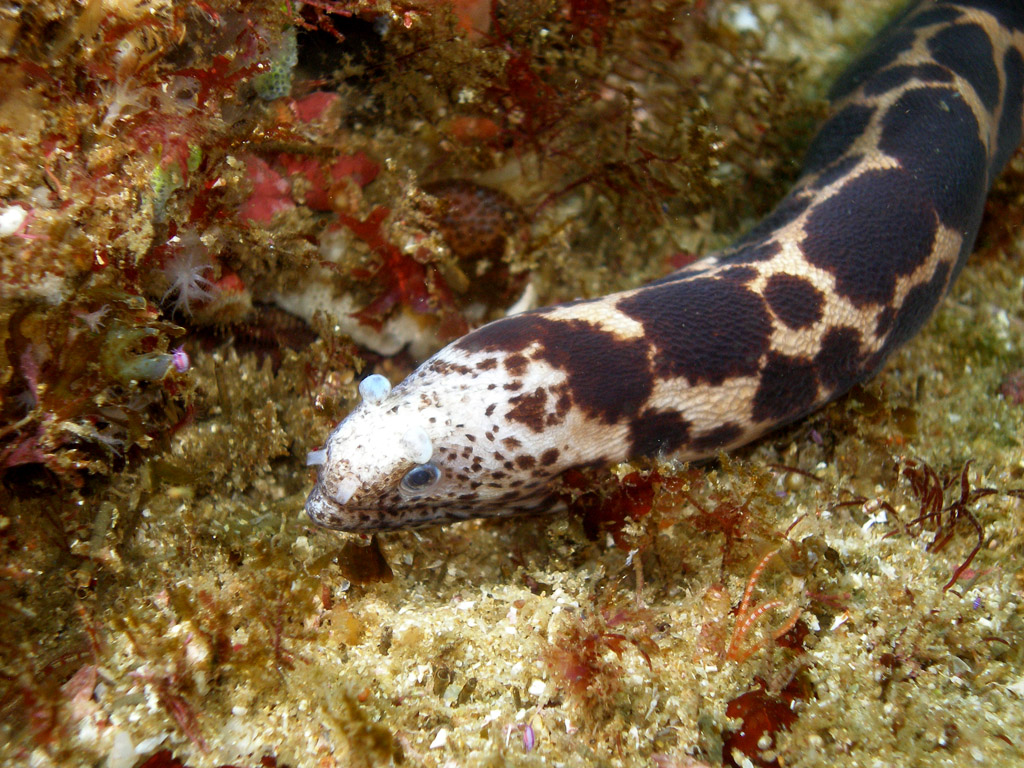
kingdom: Animalia
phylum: Chordata
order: Anguilliformes
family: Muraenidae
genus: Scuticaria
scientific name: Scuticaria tigrina
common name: Tiger moray
